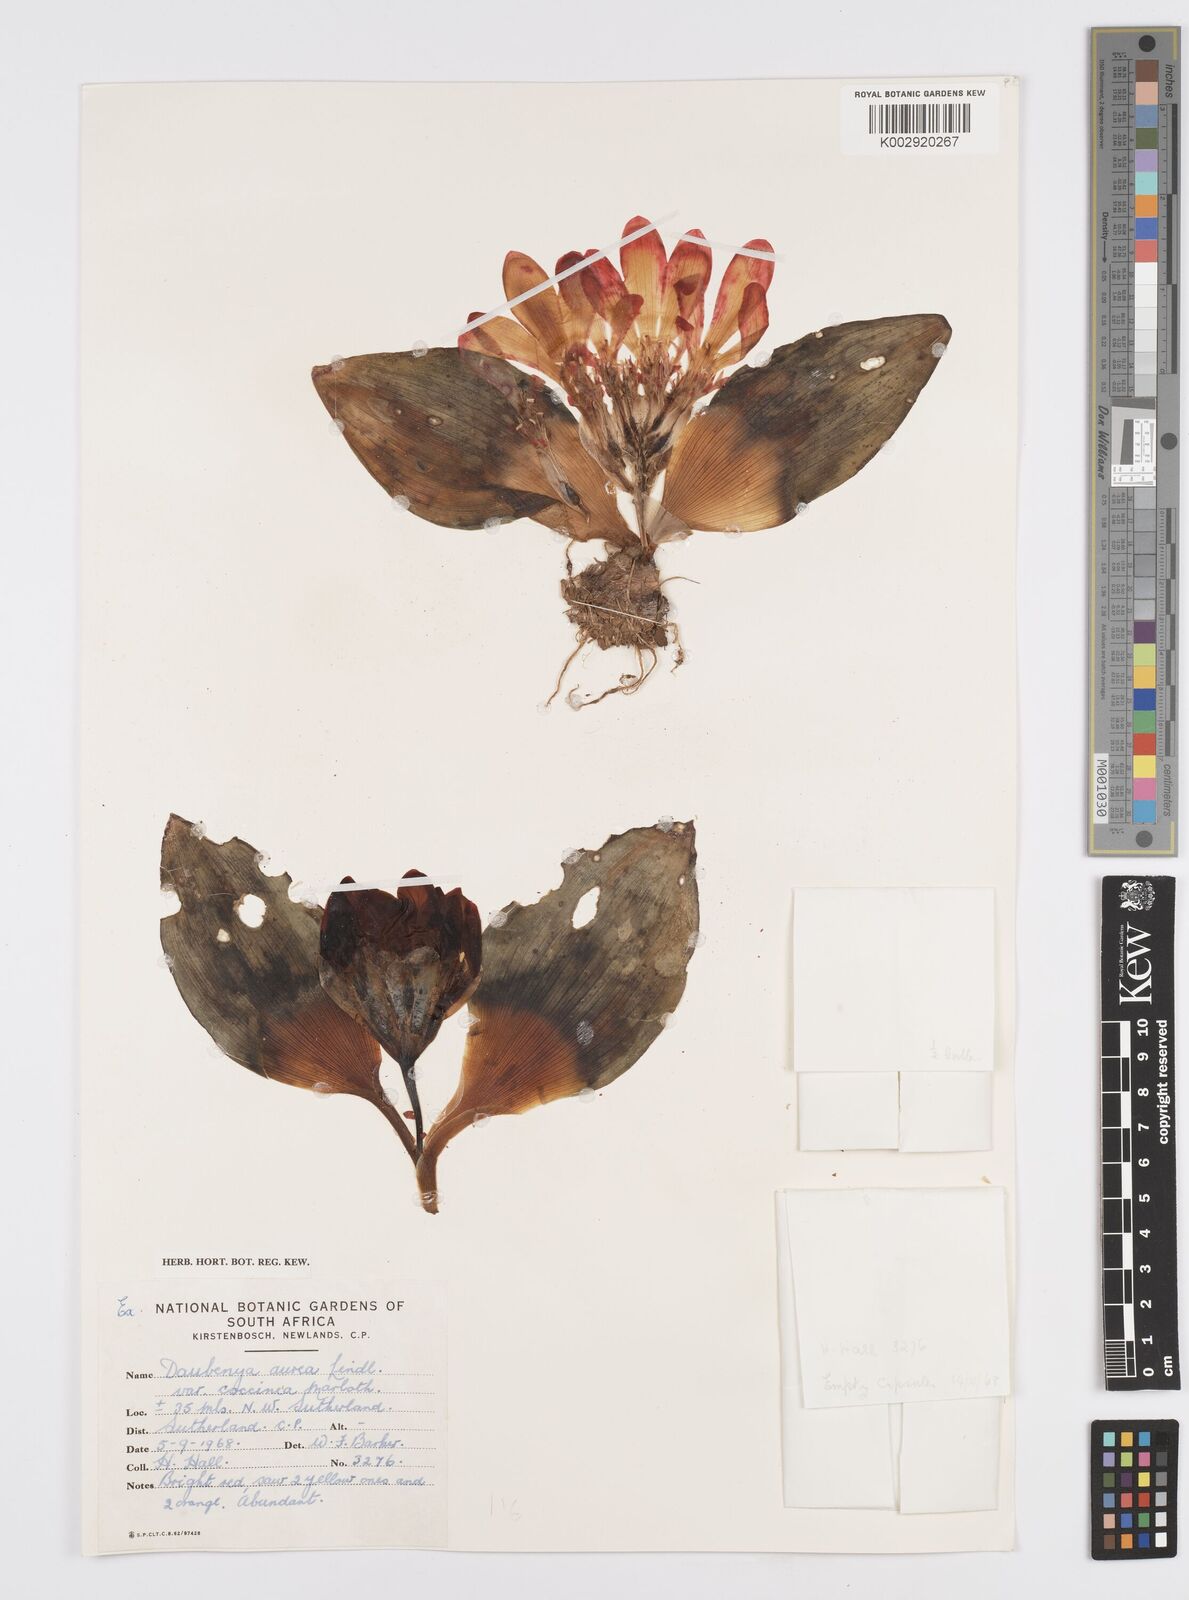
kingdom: Plantae
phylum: Tracheophyta
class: Liliopsida
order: Asparagales
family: Asparagaceae
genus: Daubenya
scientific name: Daubenya aurea
